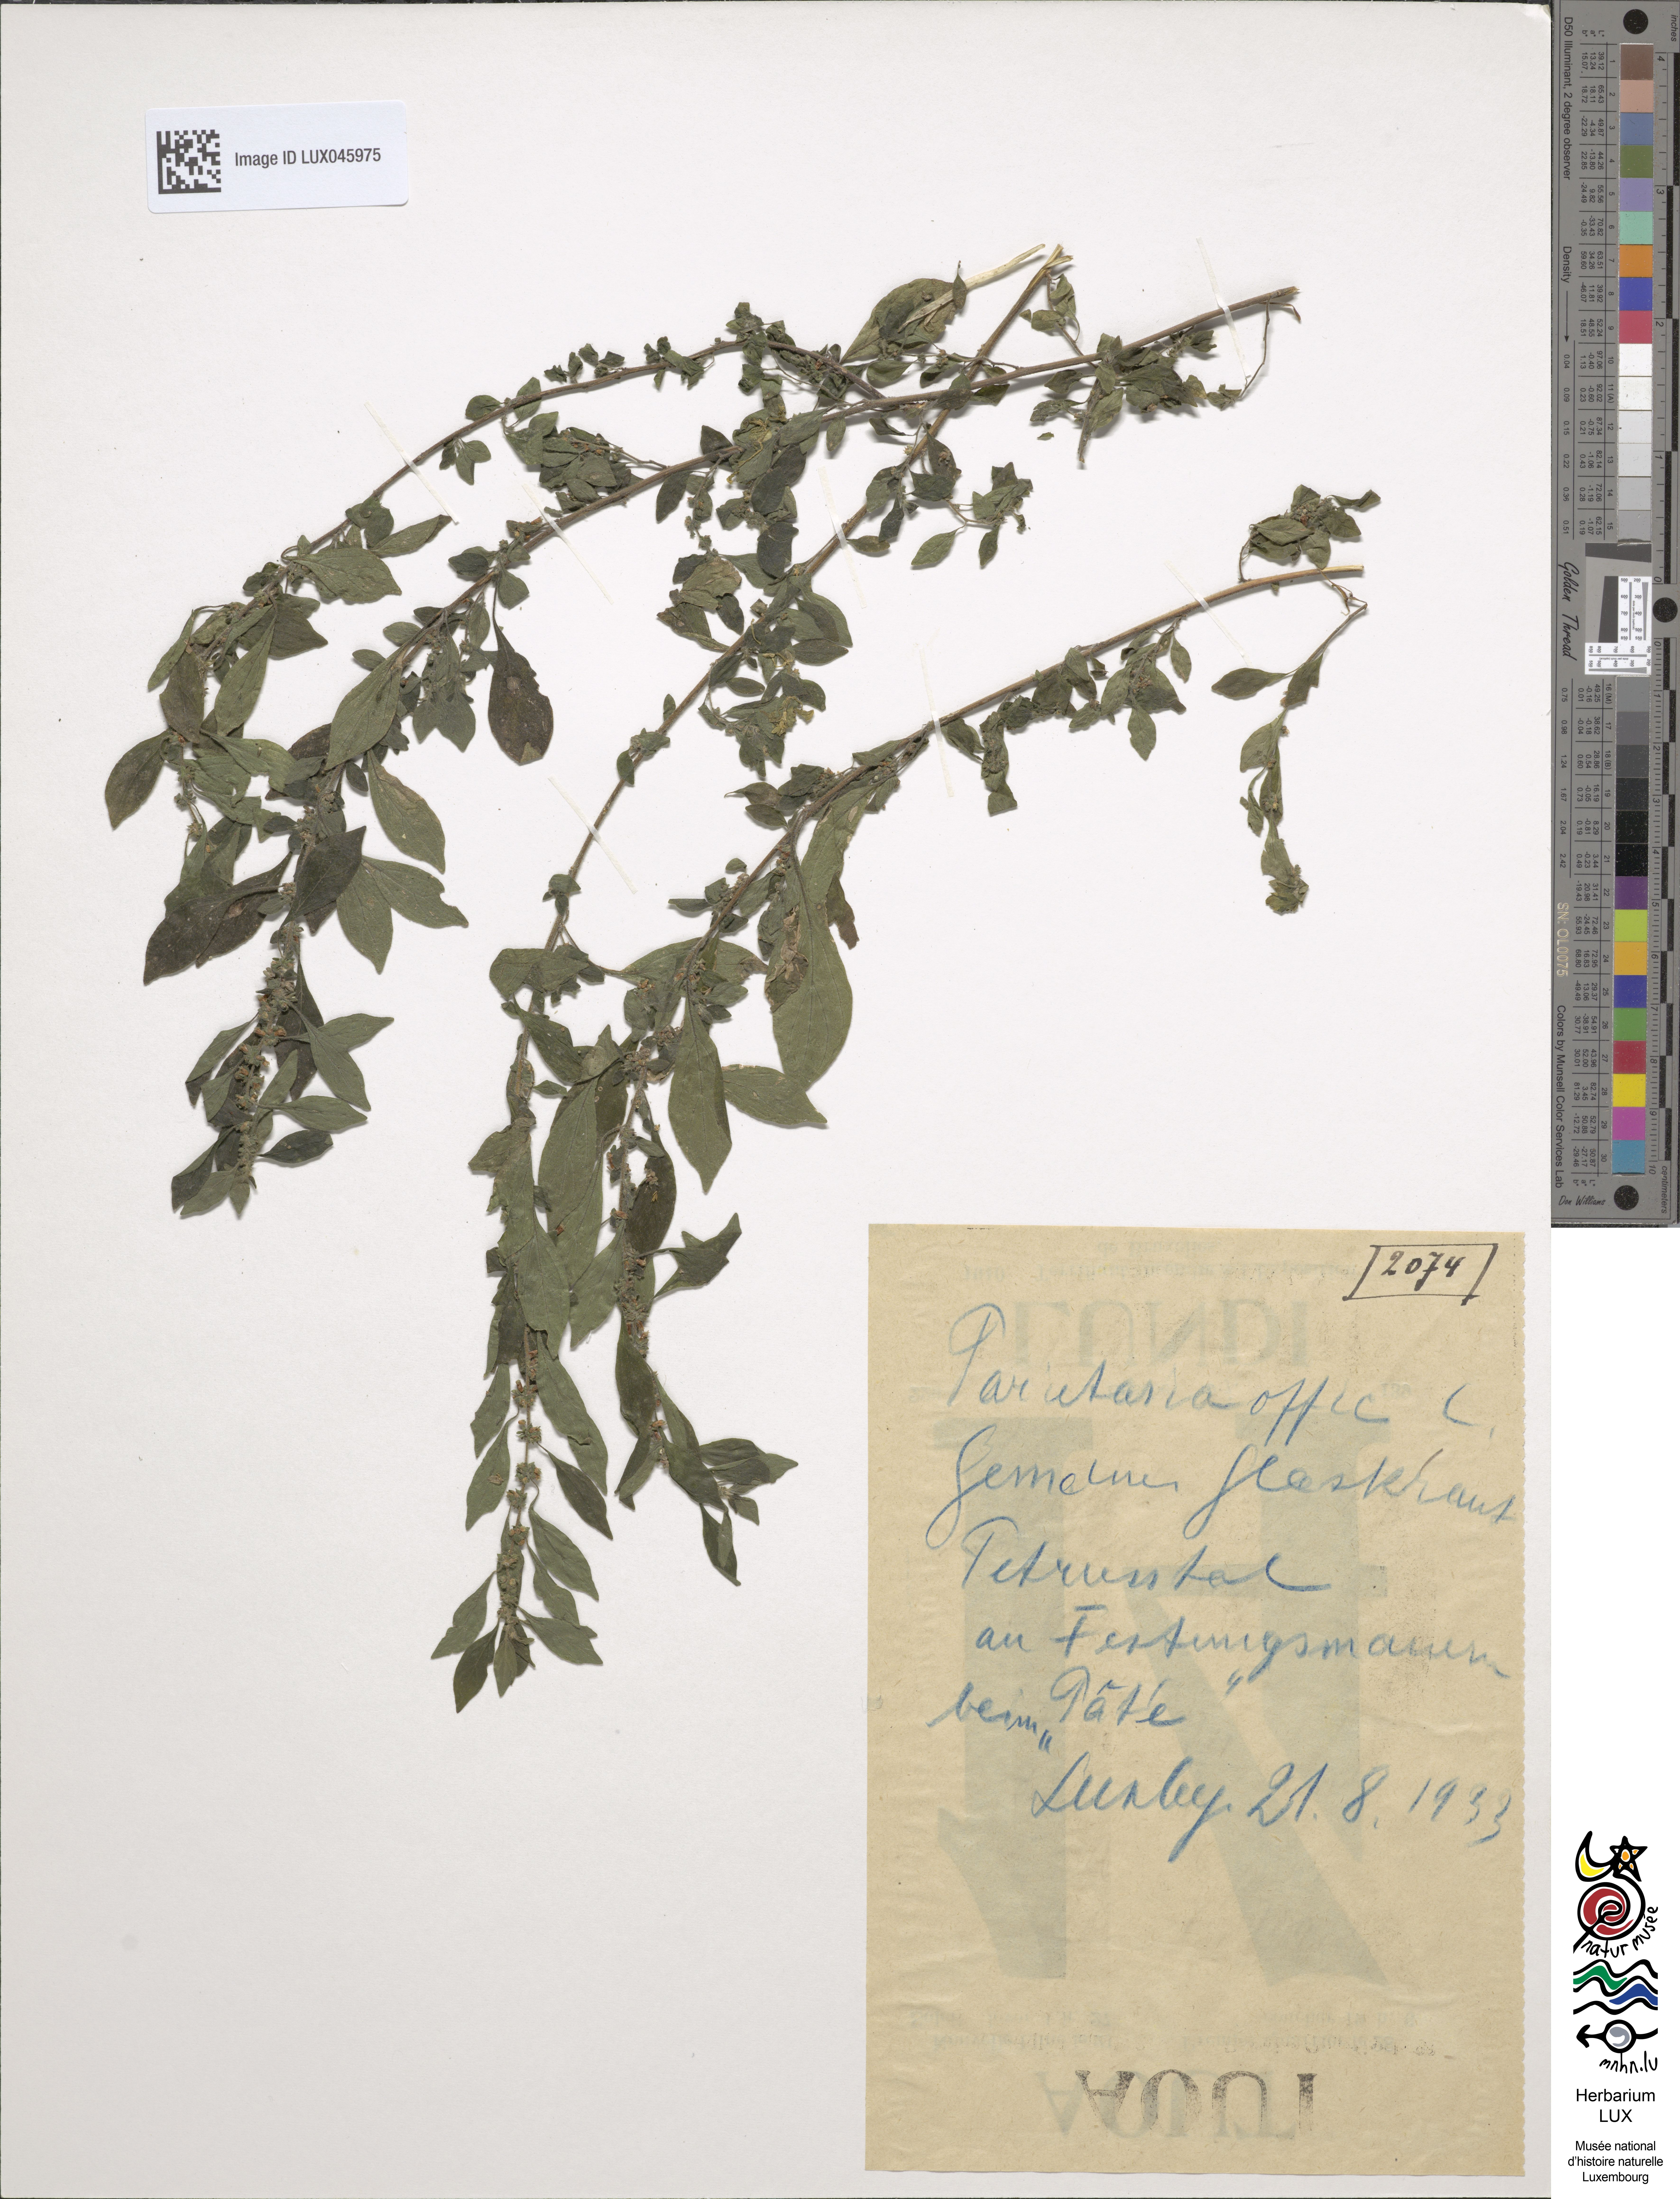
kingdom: Plantae
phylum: Tracheophyta
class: Magnoliopsida
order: Rosales
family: Urticaceae
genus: Parietaria
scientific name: Parietaria officinalis
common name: Eastern pellitory-of-the-wall
